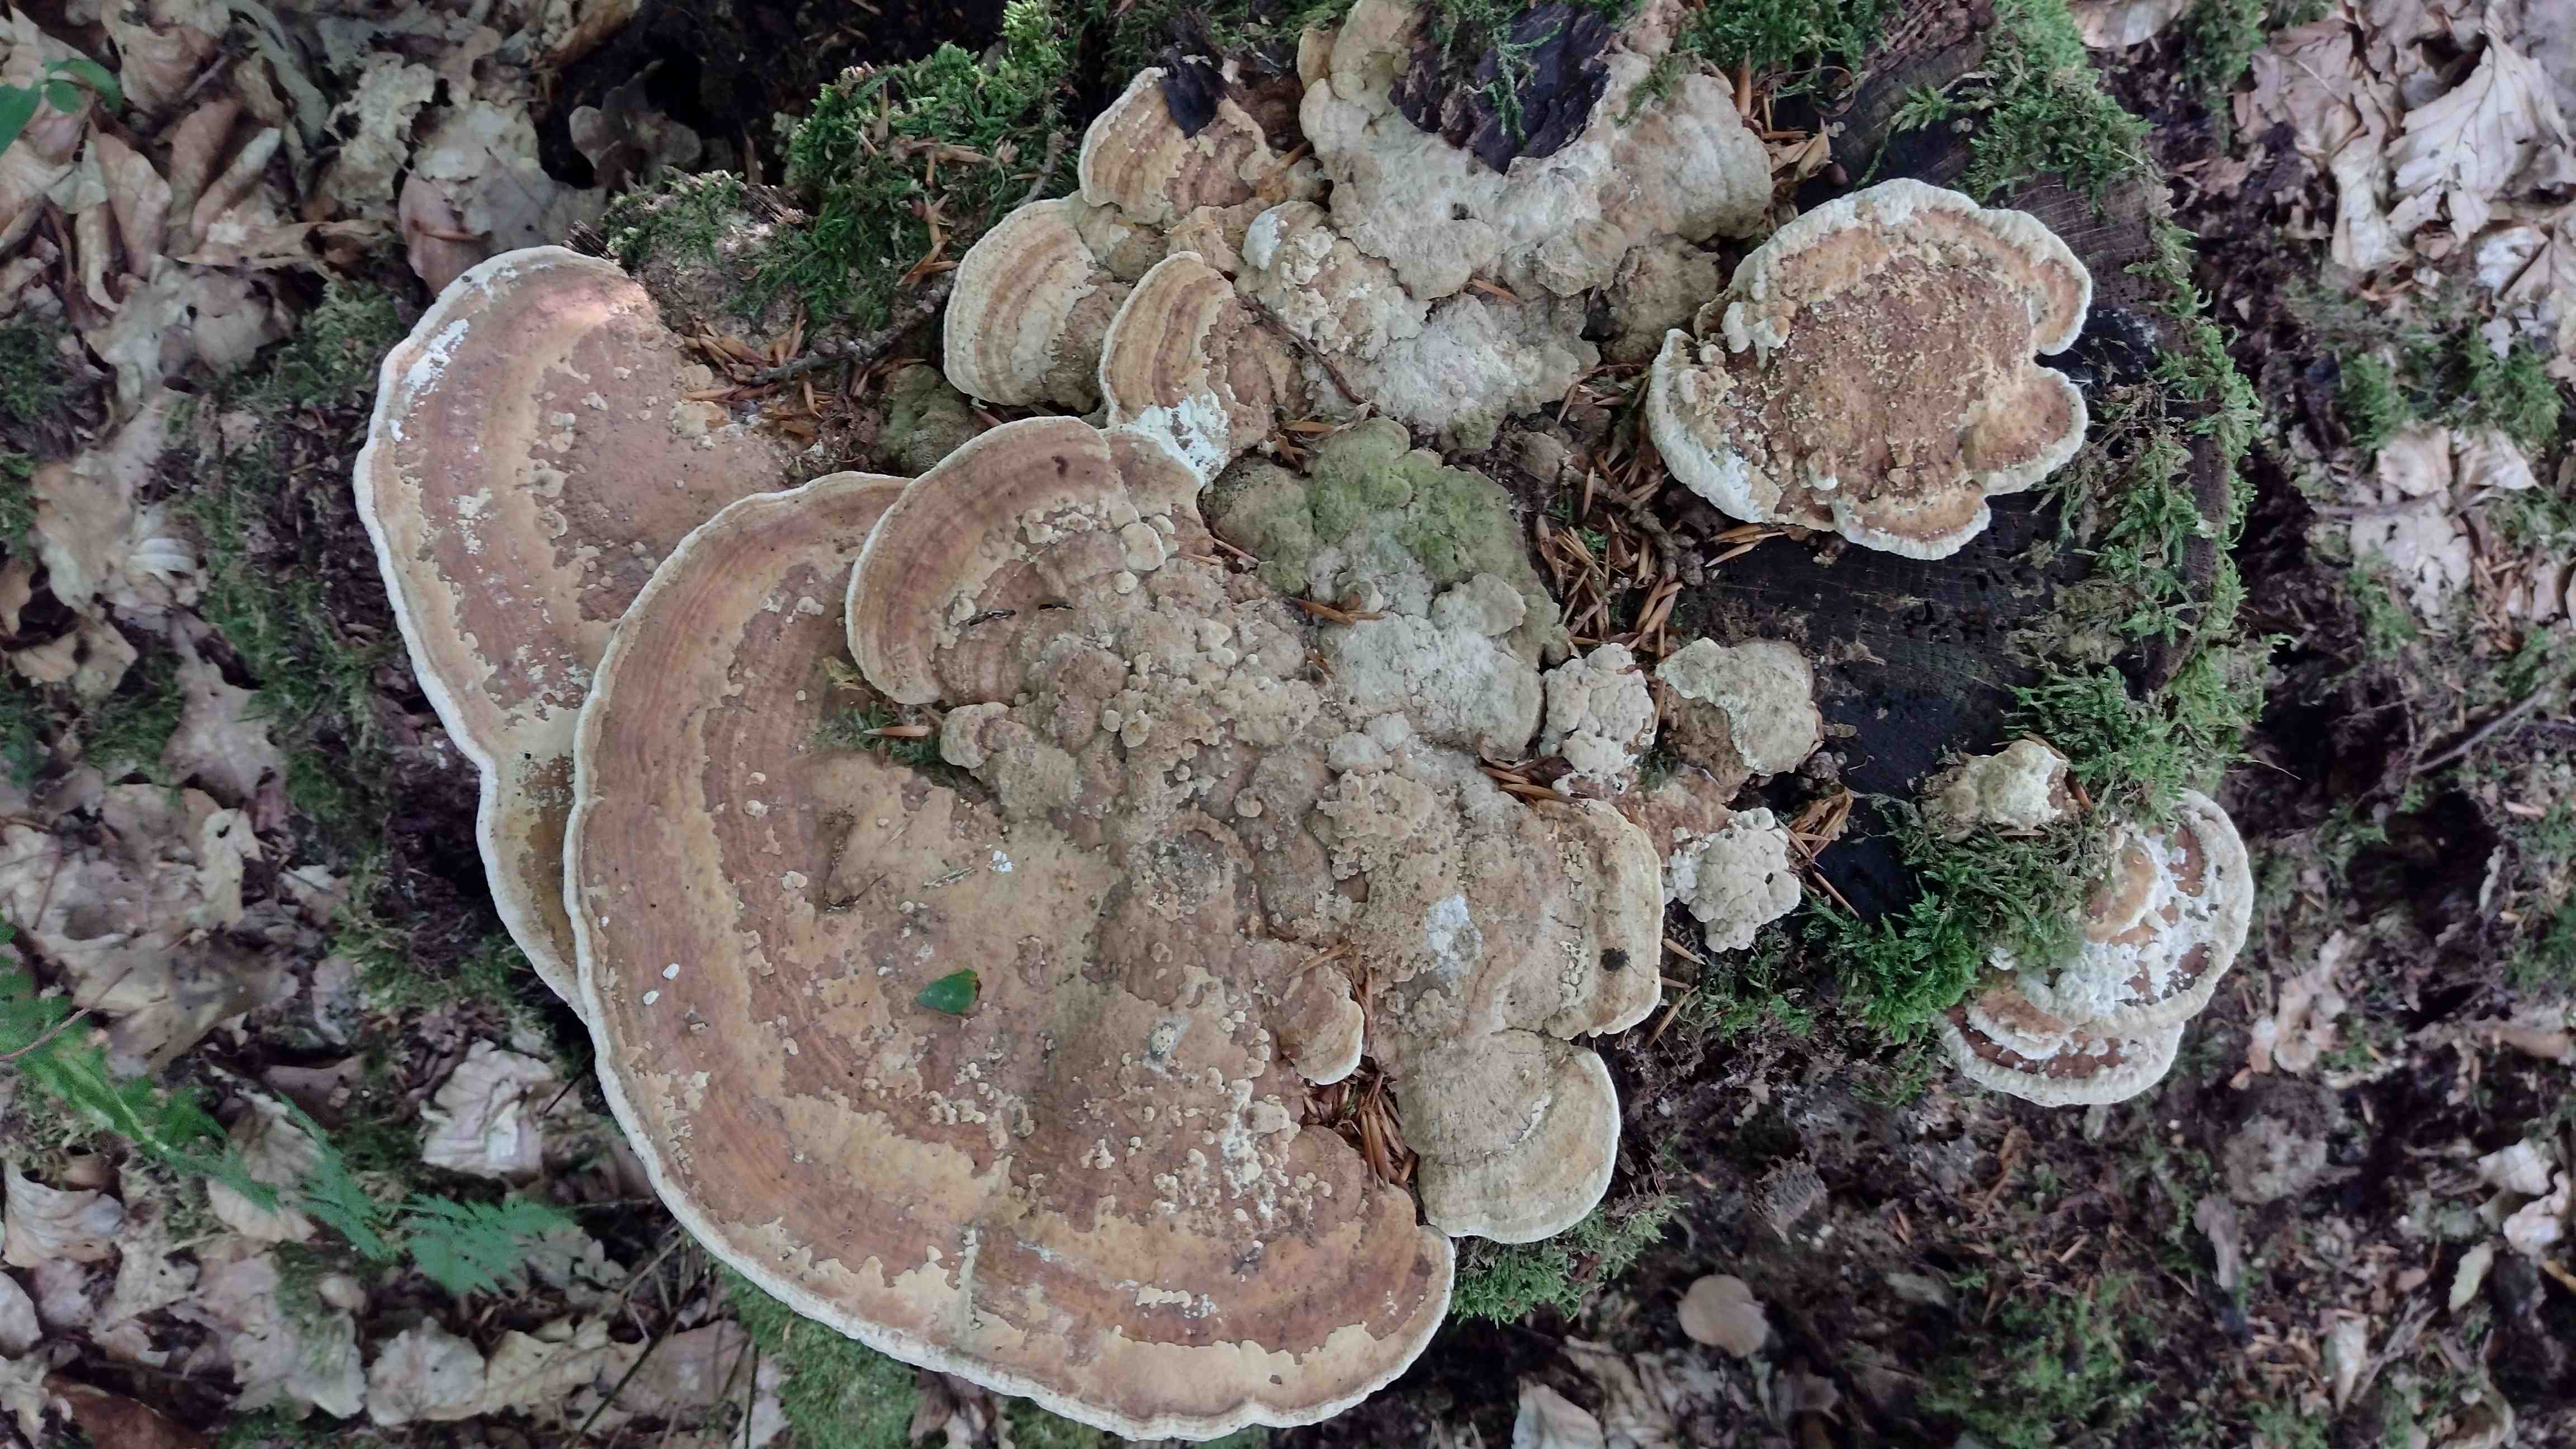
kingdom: Fungi
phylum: Basidiomycota
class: Agaricomycetes
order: Polyporales
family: Fomitopsidaceae
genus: Daedalea
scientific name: Daedalea quercina
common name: ege-labyrintsvamp
